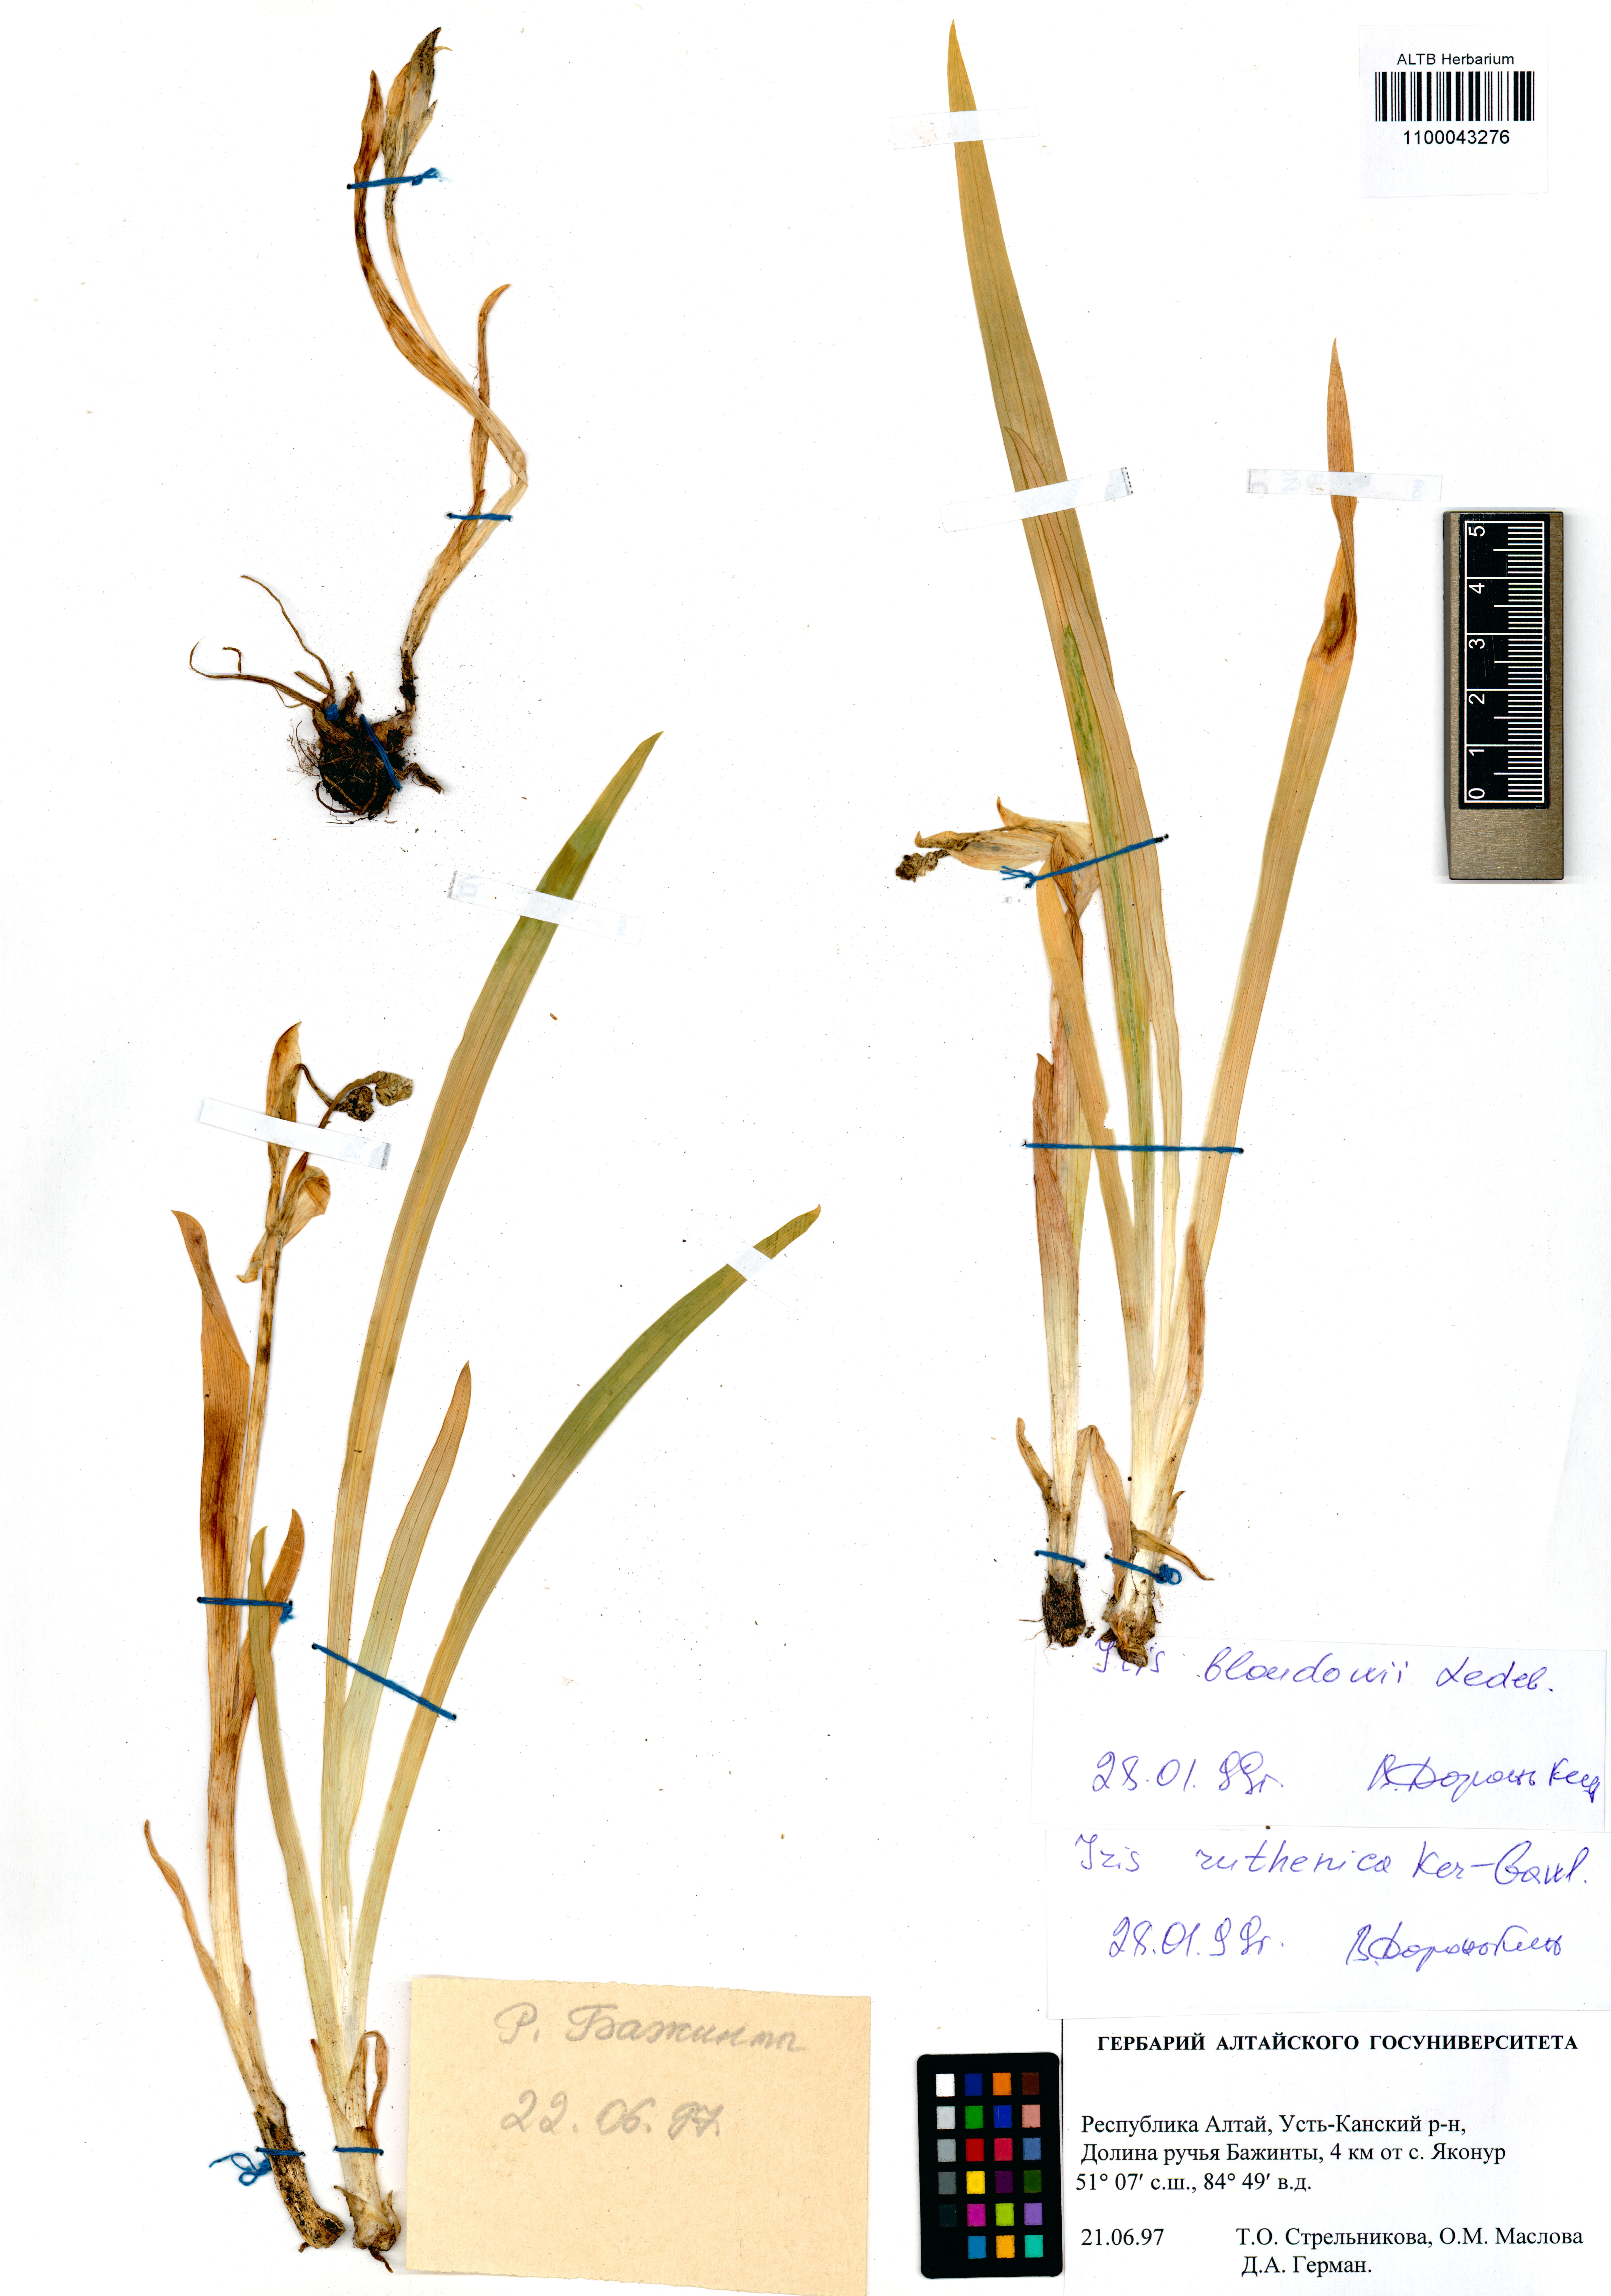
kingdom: Plantae
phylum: Tracheophyta
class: Liliopsida
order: Asparagales
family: Iridaceae
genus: Iris
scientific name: Iris bloudowii
